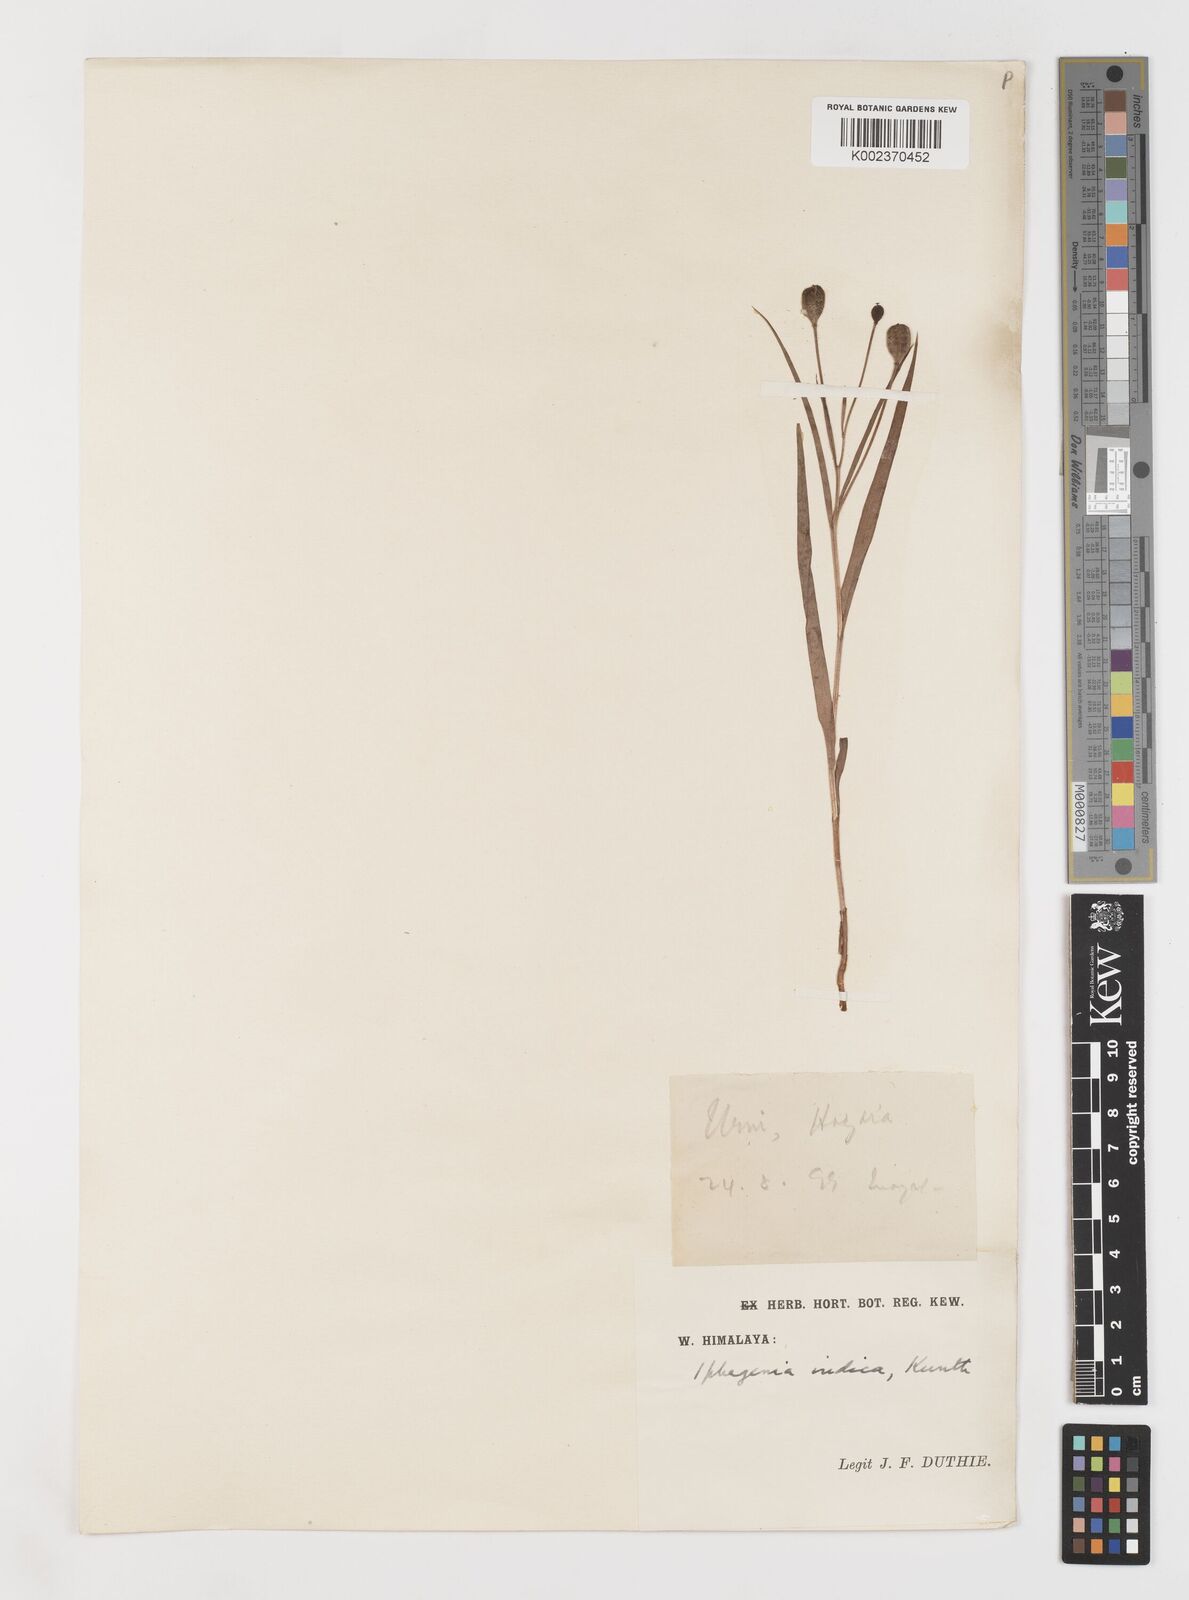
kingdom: Plantae
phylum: Tracheophyta
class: Liliopsida
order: Liliales
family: Colchicaceae
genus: Iphigenia
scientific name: Iphigenia indica
